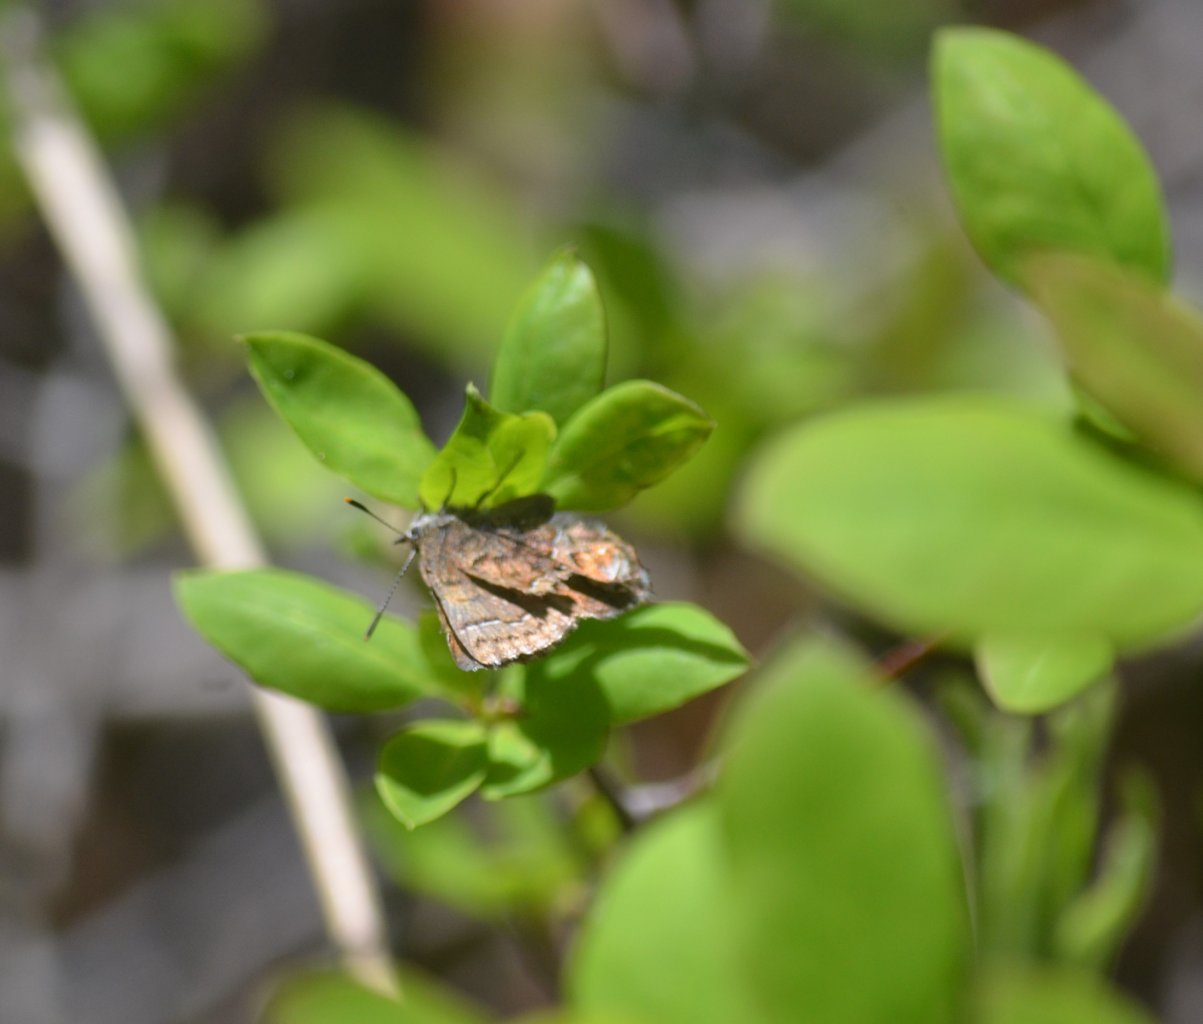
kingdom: Animalia
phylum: Arthropoda
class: Insecta
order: Lepidoptera
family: Lycaenidae
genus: Incisalia
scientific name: Incisalia niphon
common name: Eastern Pine Elfin
